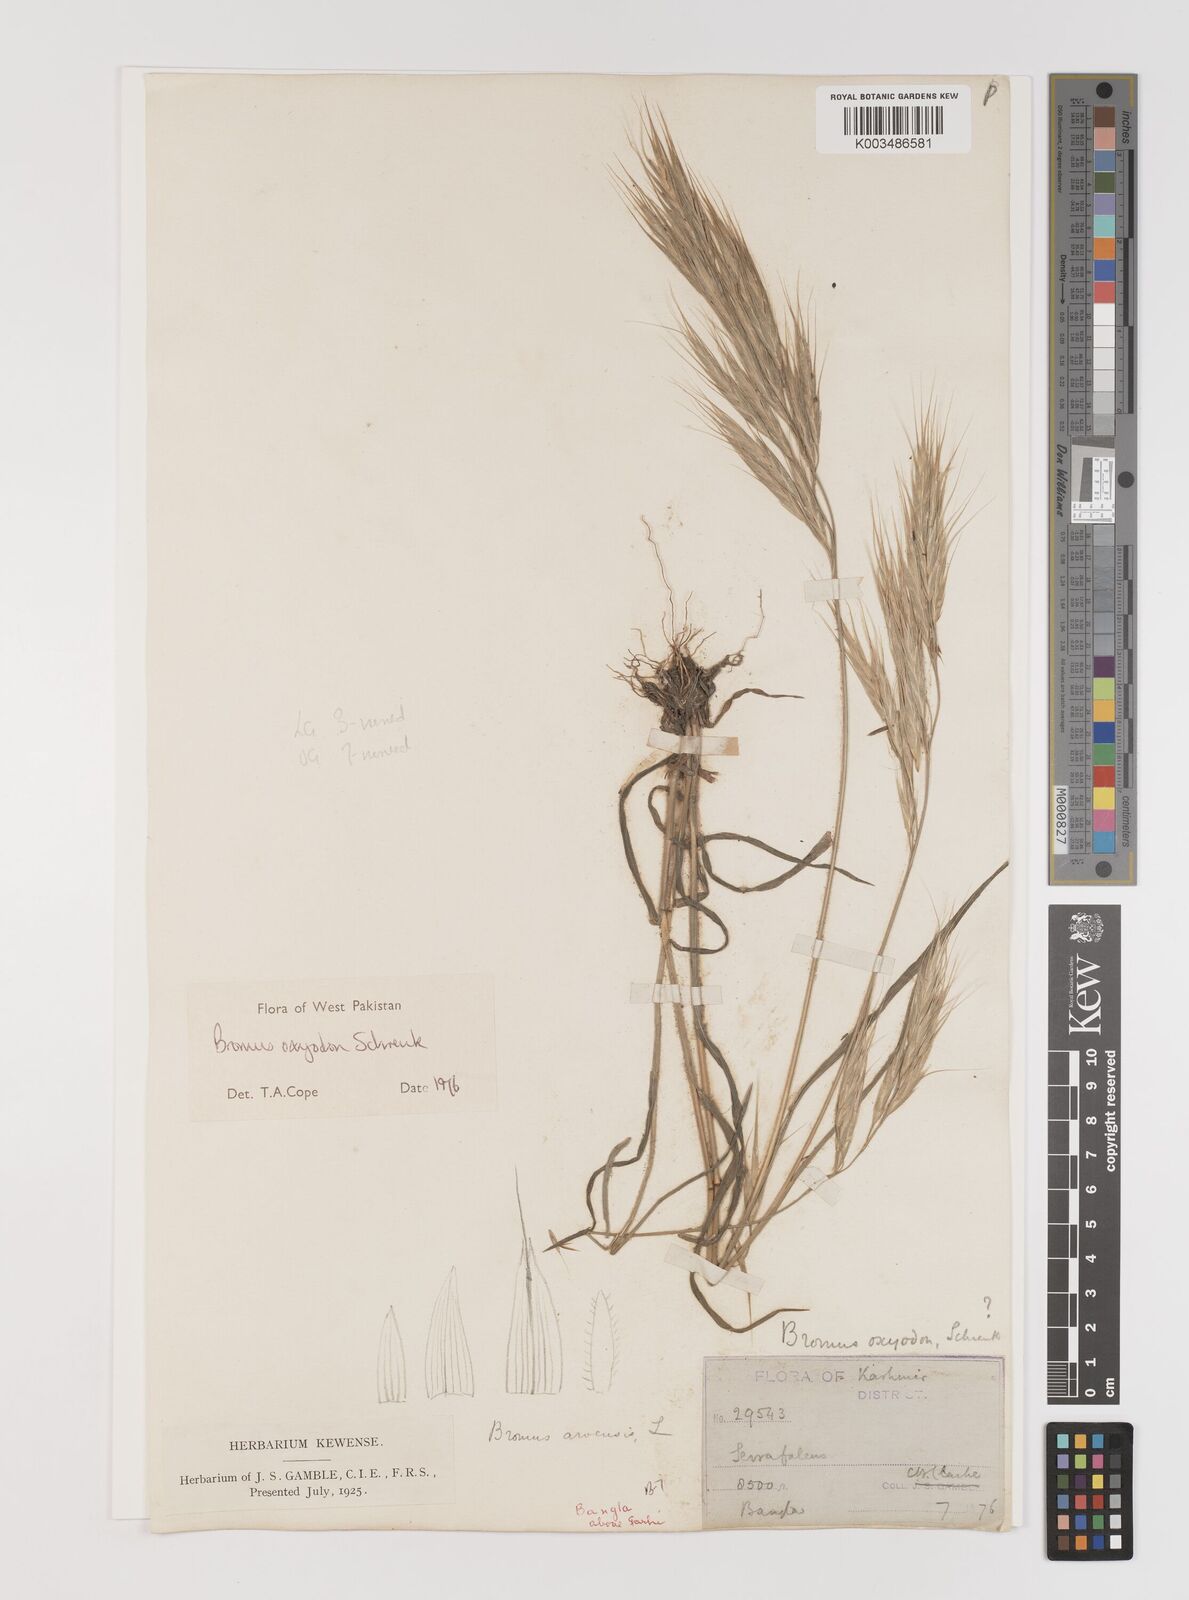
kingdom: Plantae
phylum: Tracheophyta
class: Liliopsida
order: Poales
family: Poaceae
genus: Bromus
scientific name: Bromus oxyodon
